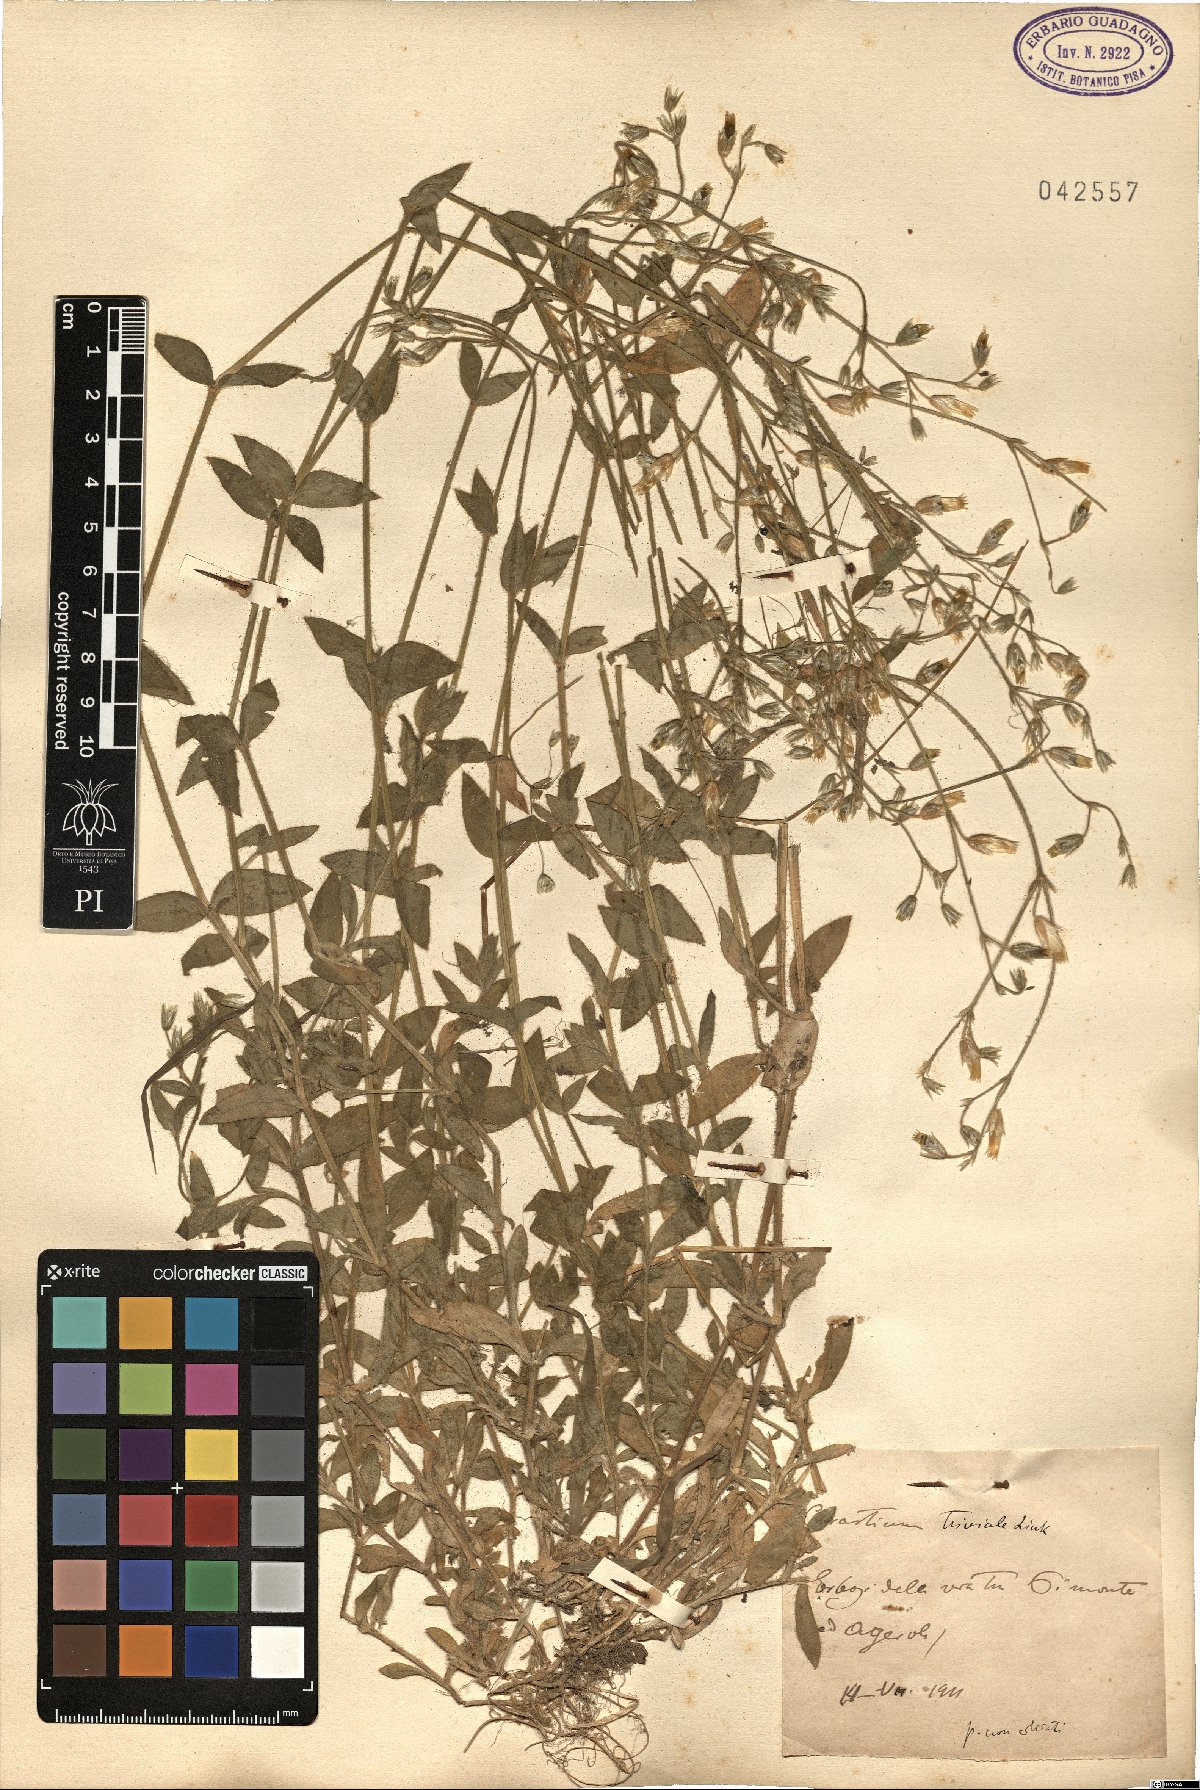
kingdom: Plantae
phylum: Tracheophyta
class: Magnoliopsida
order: Caryophyllales
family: Caryophyllaceae
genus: Cerastium
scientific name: Cerastium glomeratum
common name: Sticky chickweed
